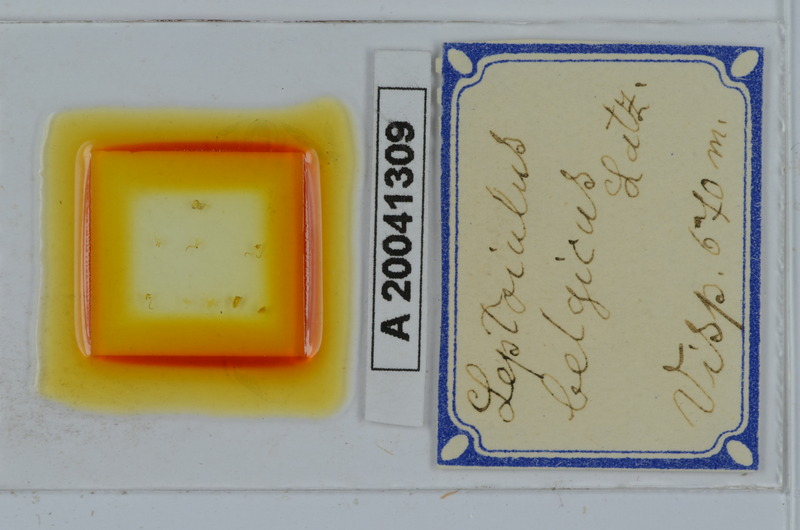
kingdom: Animalia
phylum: Arthropoda
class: Diplopoda
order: Julida
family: Julidae
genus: Leptoiulus
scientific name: Leptoiulus belgicus
